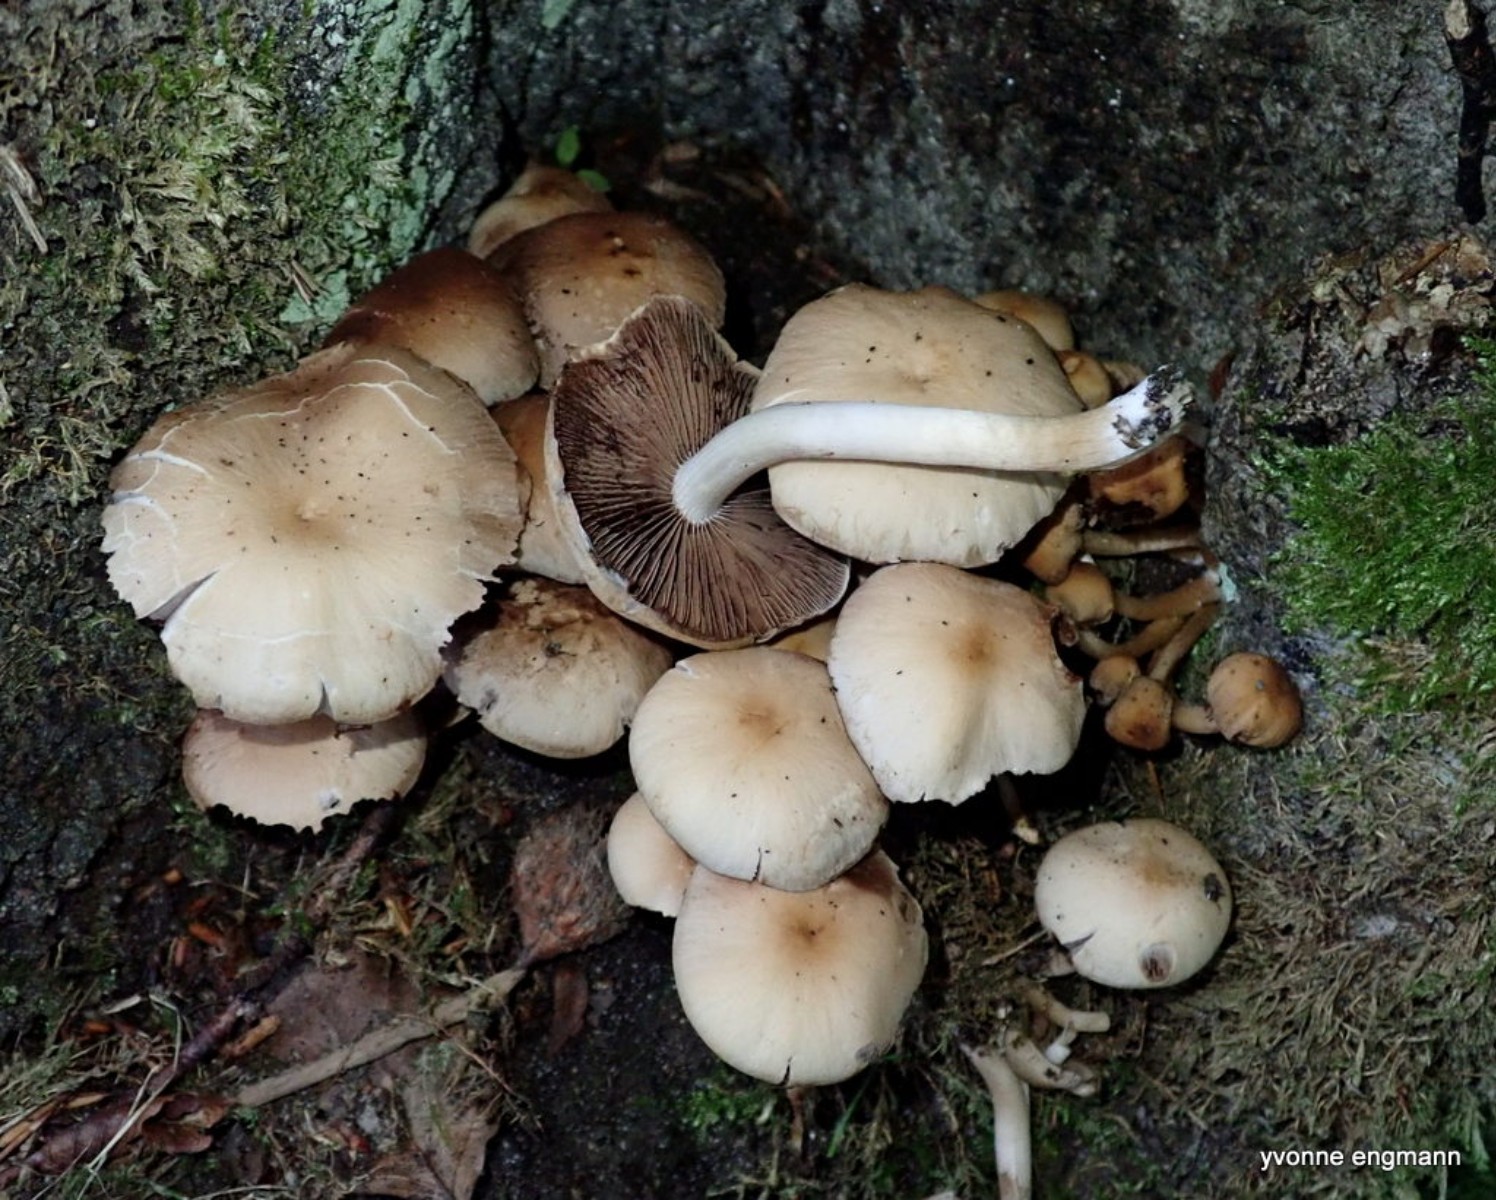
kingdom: Fungi
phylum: Basidiomycota
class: Agaricomycetes
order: Agaricales
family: Psathyrellaceae
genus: Candolleomyces
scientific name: Candolleomyces candolleanus
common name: Candolles mørkhat
